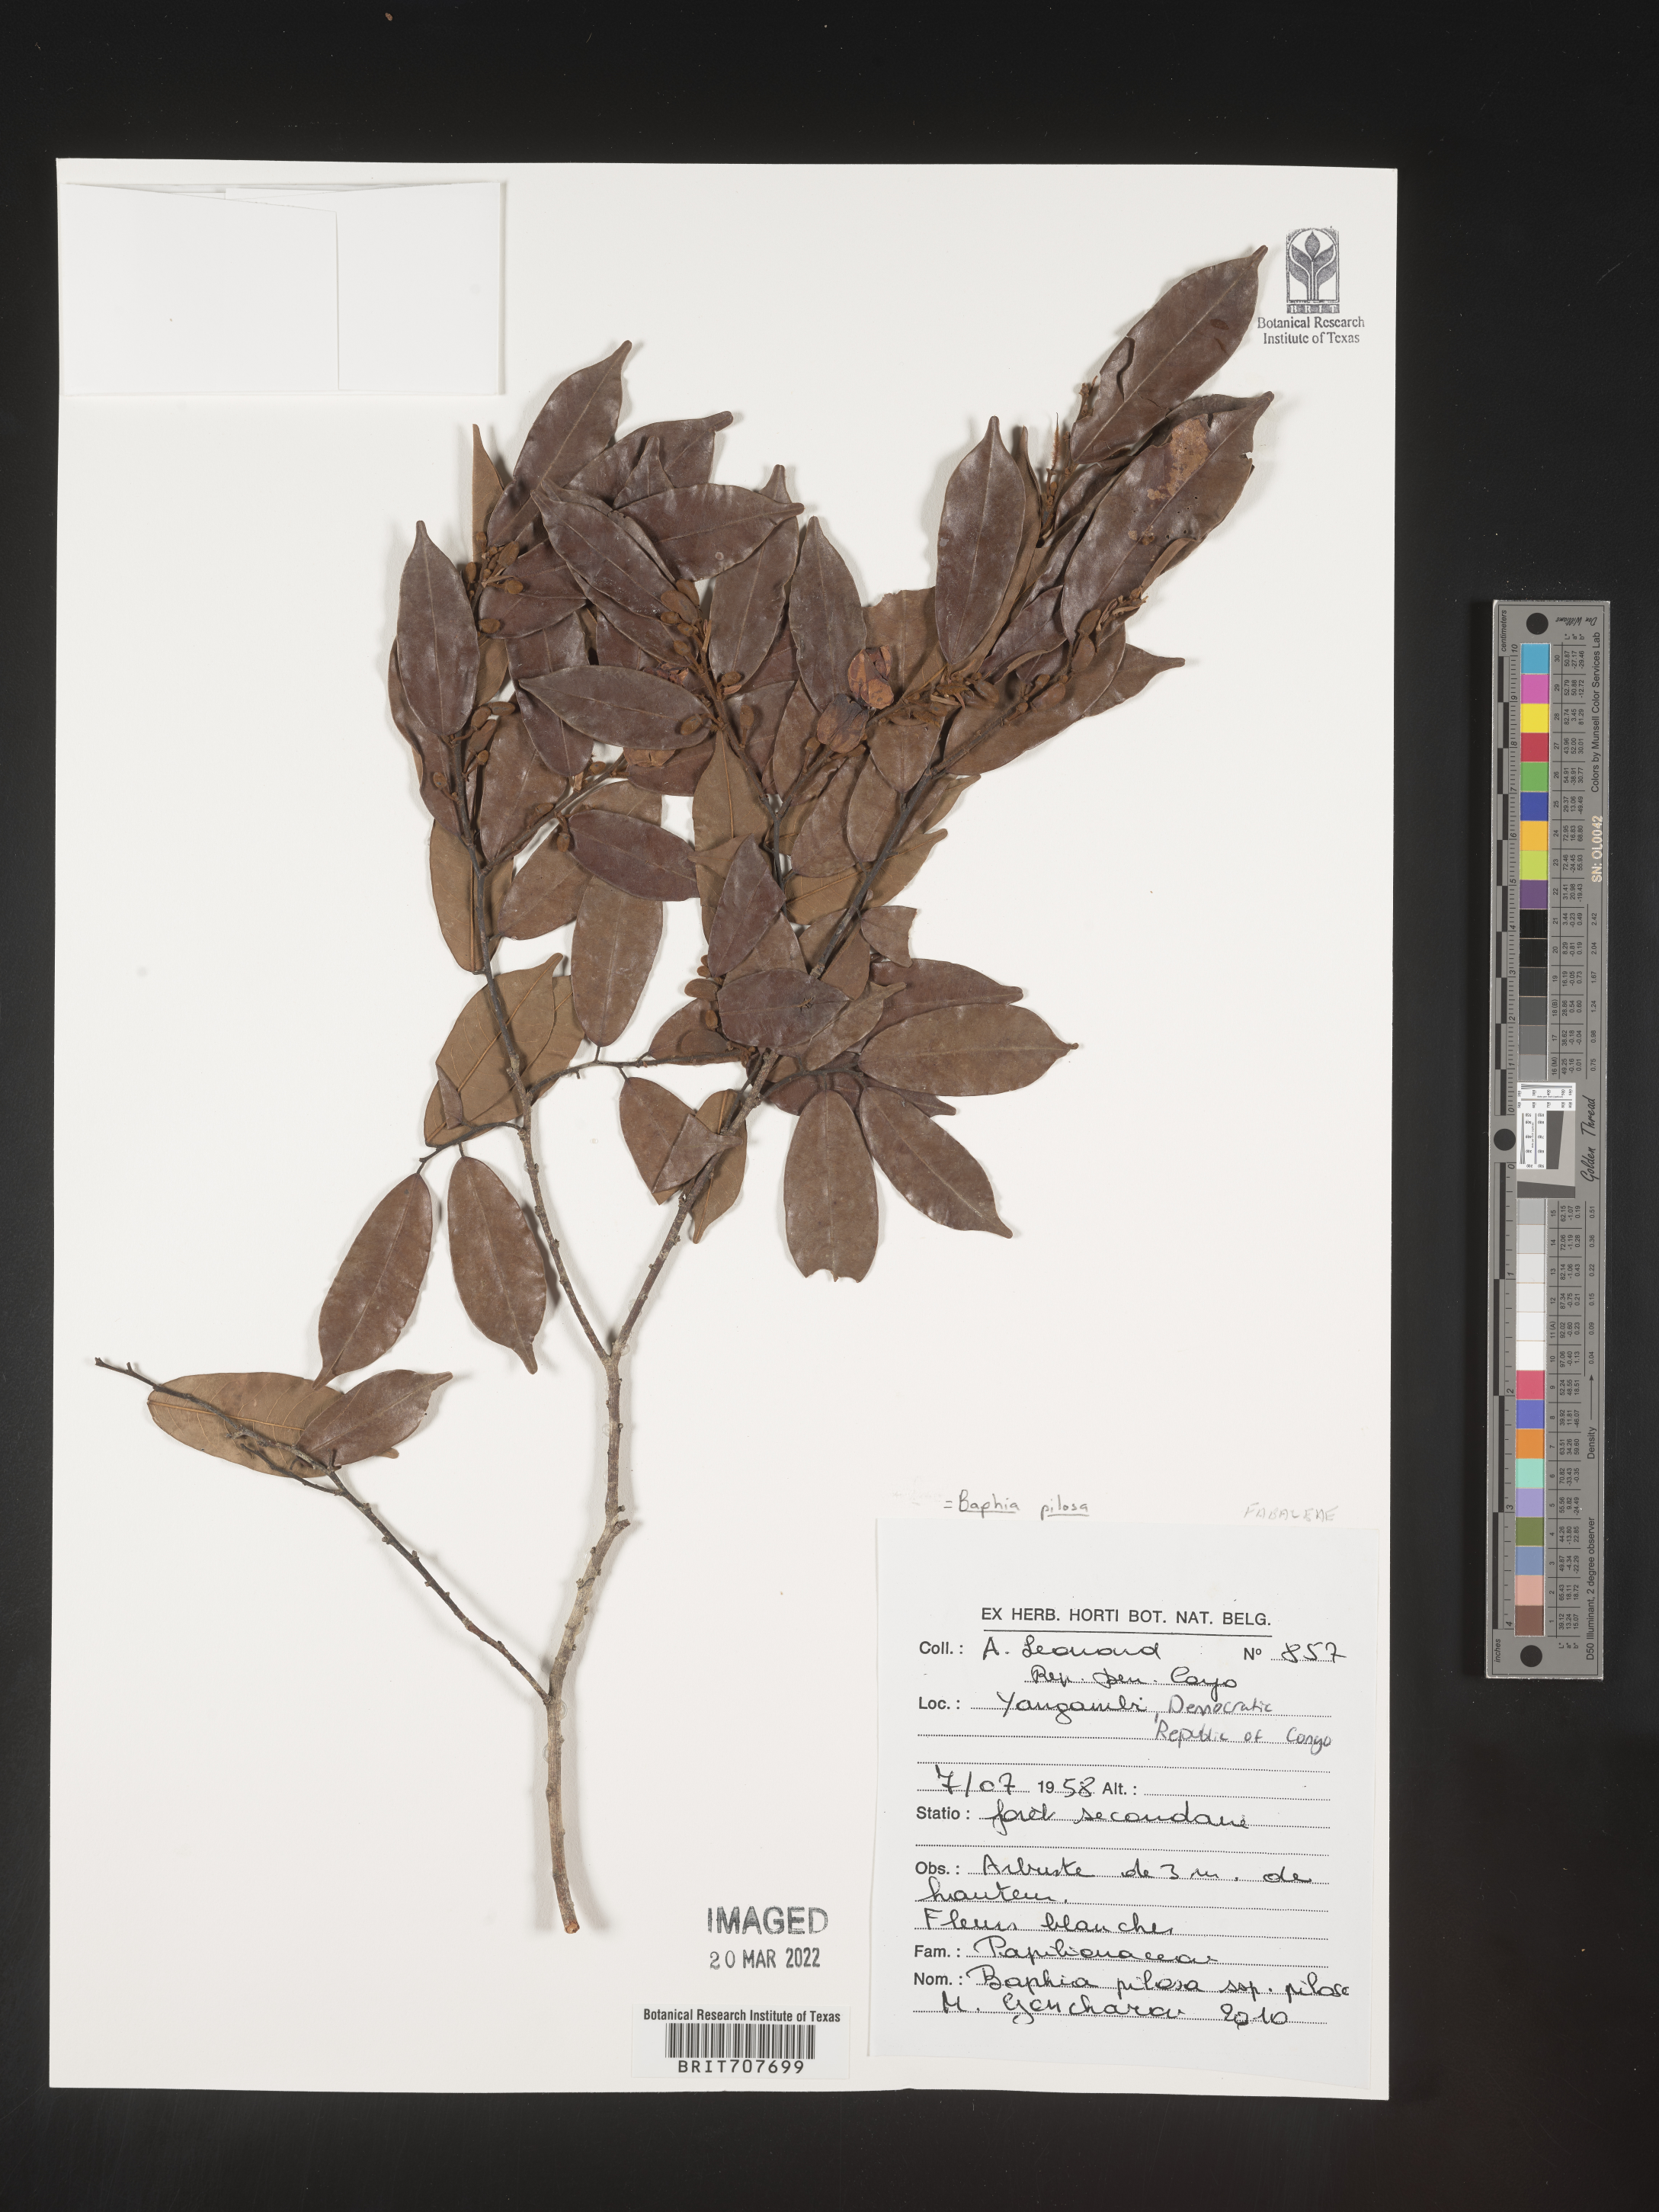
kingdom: Plantae
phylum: Tracheophyta
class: Magnoliopsida
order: Fabales
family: Fabaceae
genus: Baphia
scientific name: Baphia
